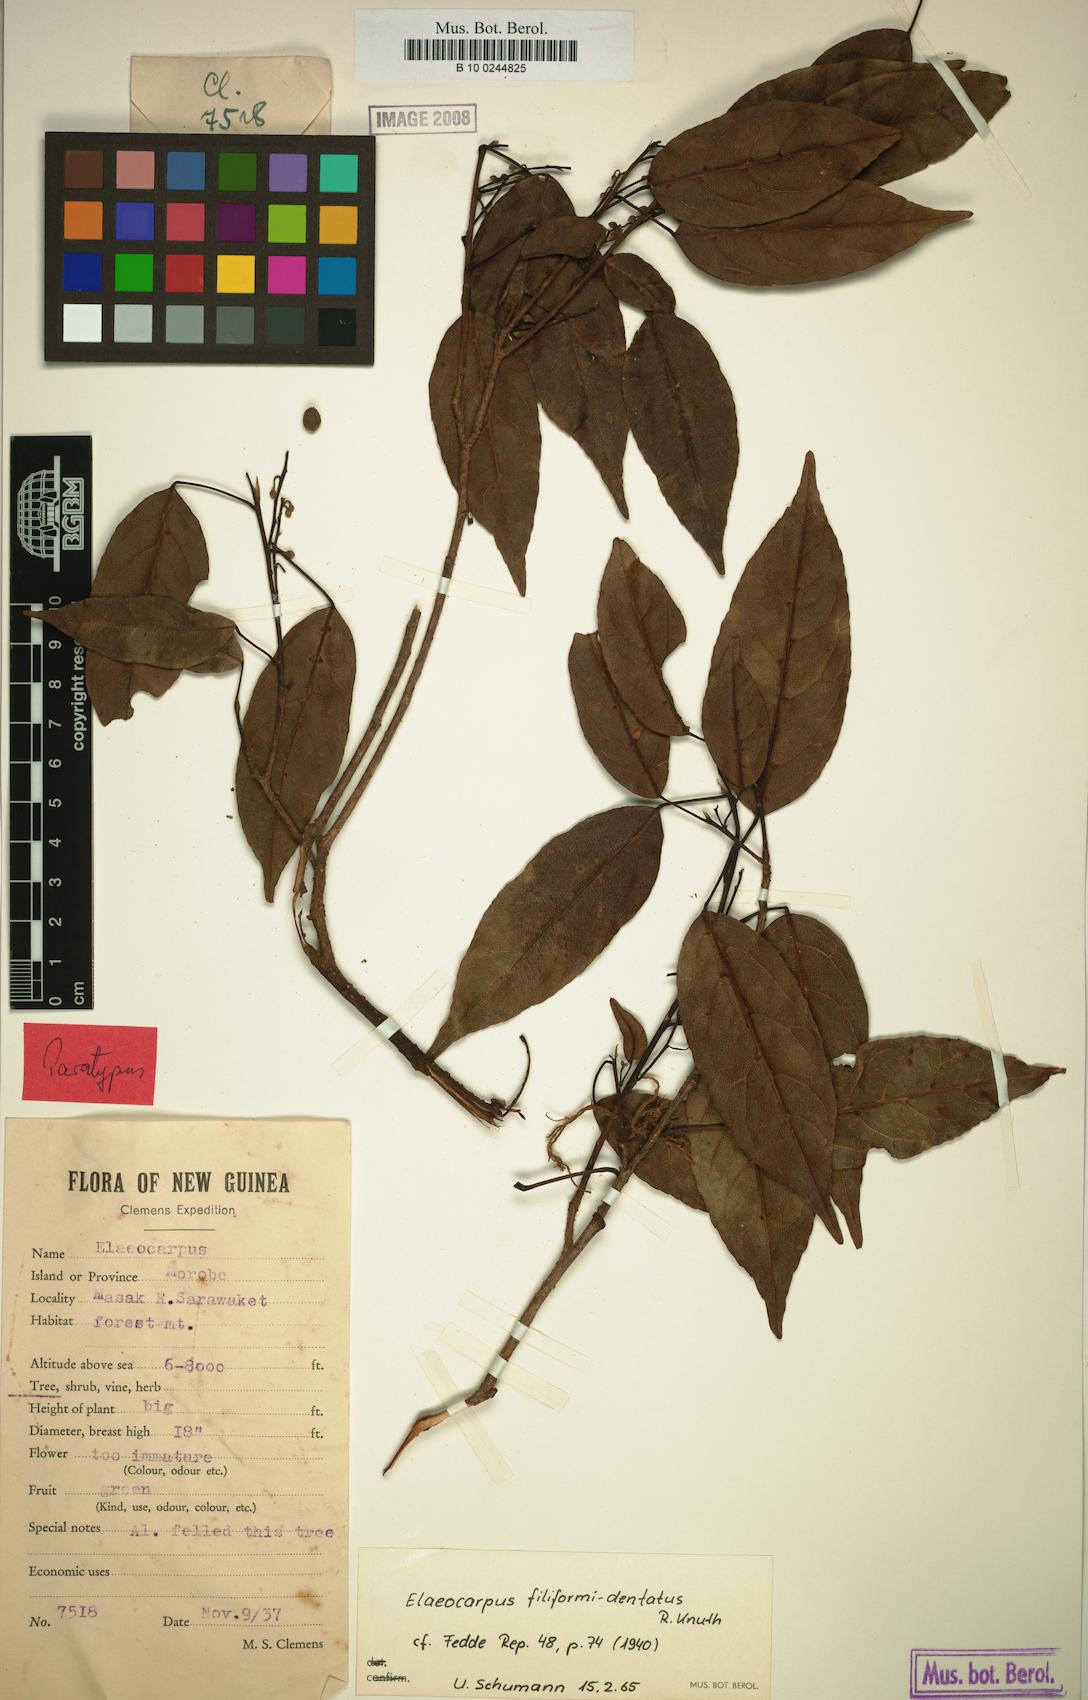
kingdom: Plantae
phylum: Tracheophyta
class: Magnoliopsida
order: Oxalidales
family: Elaeocarpaceae
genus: Elaeocarpus
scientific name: Elaeocarpus filiformidentatus
